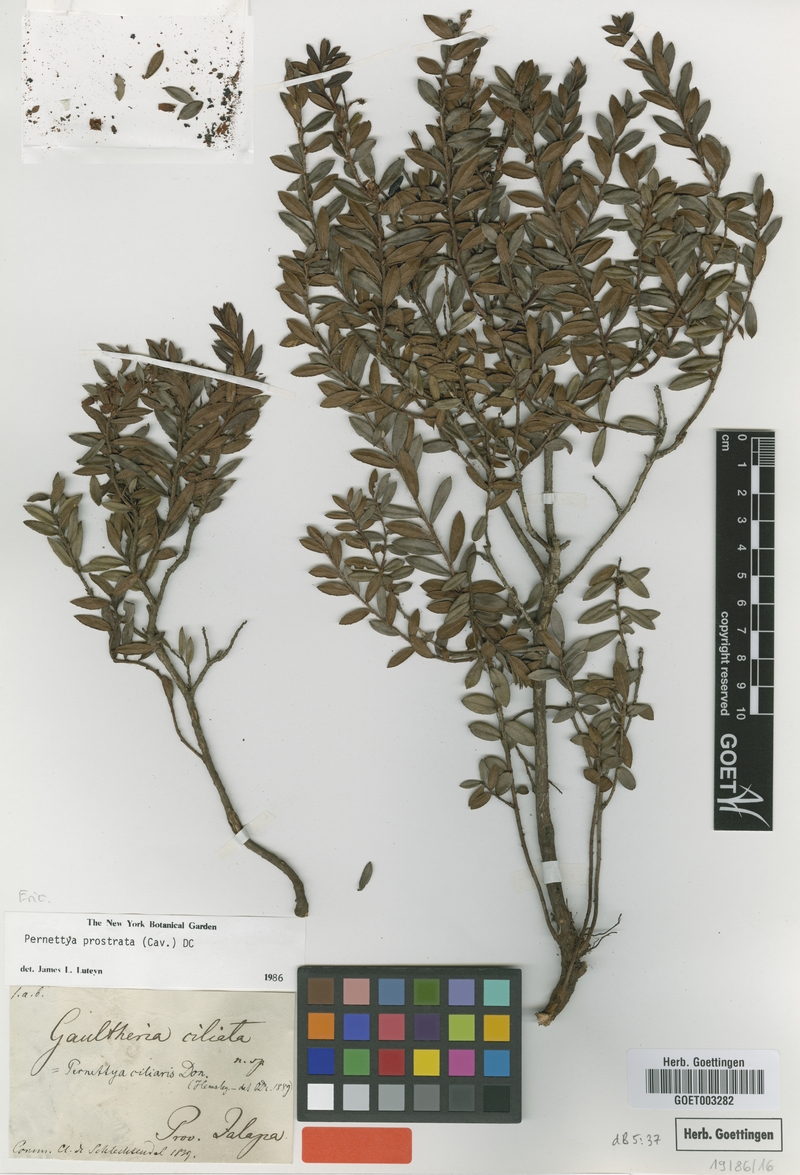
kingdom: Plantae
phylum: Tracheophyta
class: Magnoliopsida
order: Ericales
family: Ericaceae
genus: Gaultheria
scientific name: Gaultheria myrsinoides
